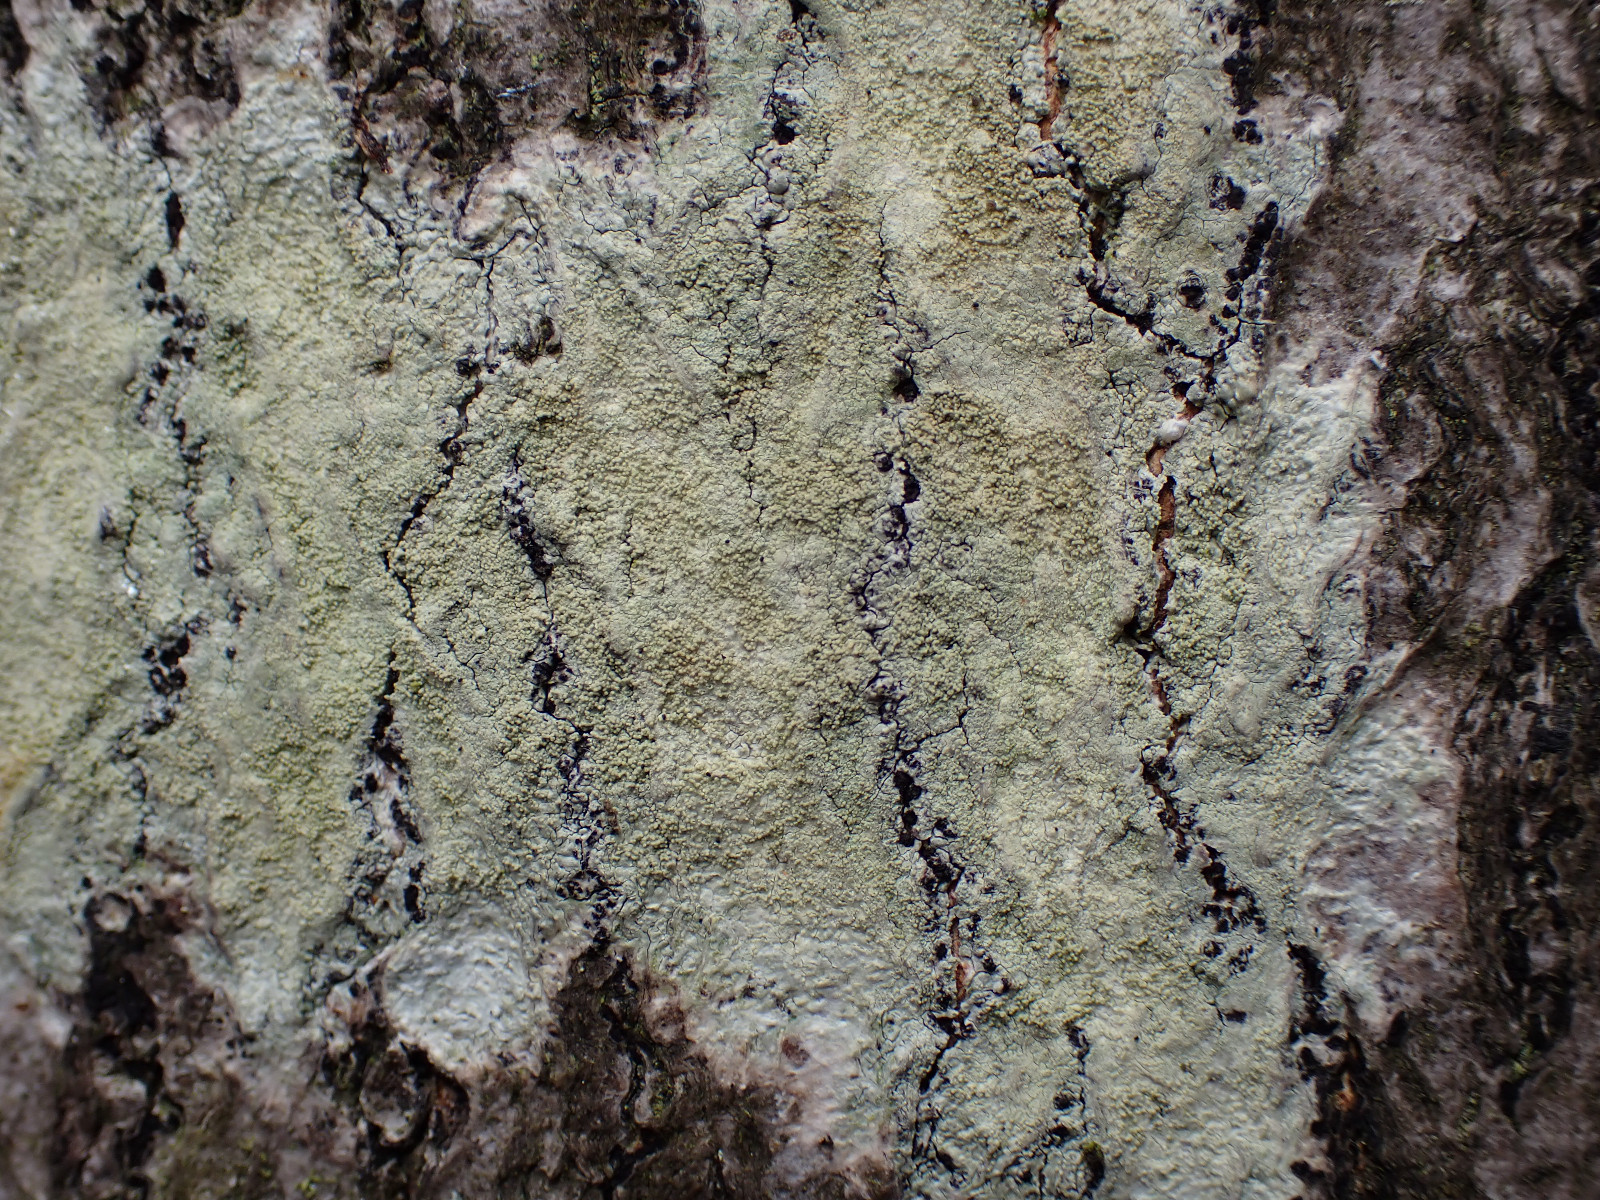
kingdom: Fungi
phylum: Ascomycota
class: Lecanoromycetes
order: Pertusariales
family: Pertusariaceae
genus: Pertusaria
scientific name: Pertusaria flavida
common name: gul prikvortelav
